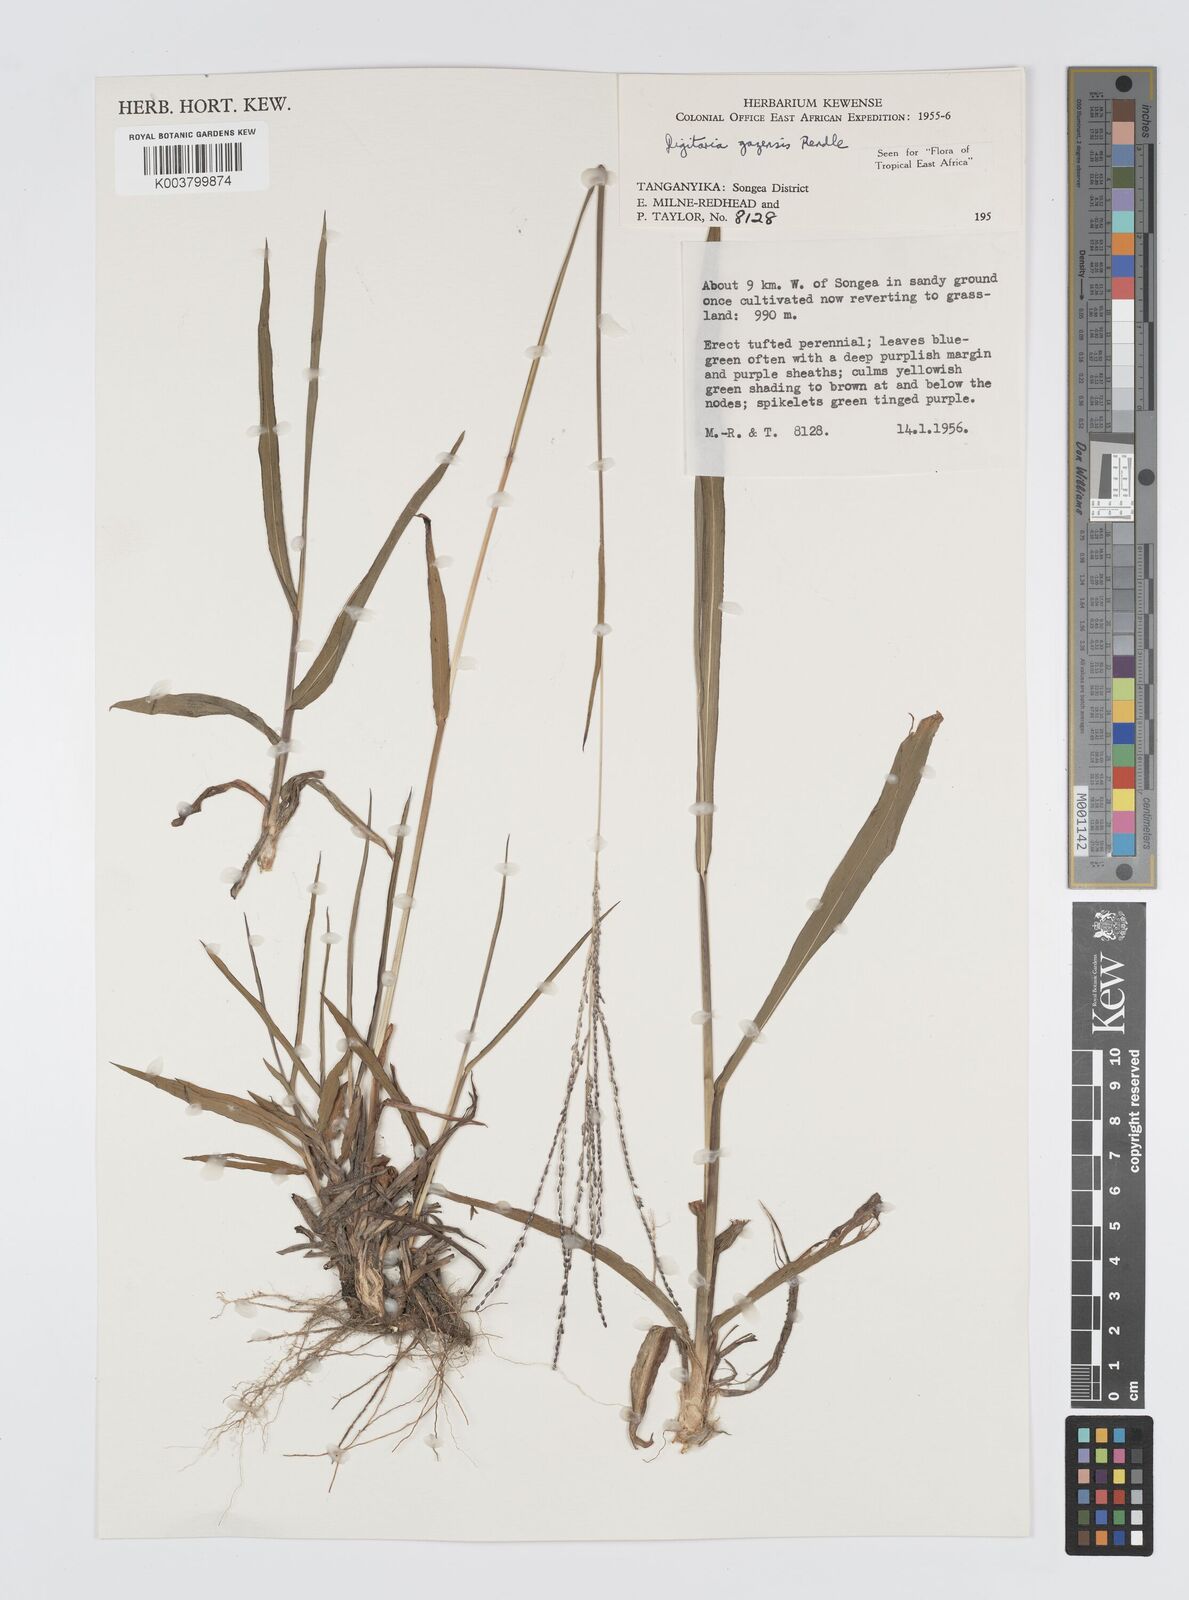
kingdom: Plantae
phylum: Tracheophyta
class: Liliopsida
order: Poales
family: Poaceae
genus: Digitaria
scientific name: Digitaria gazensis
